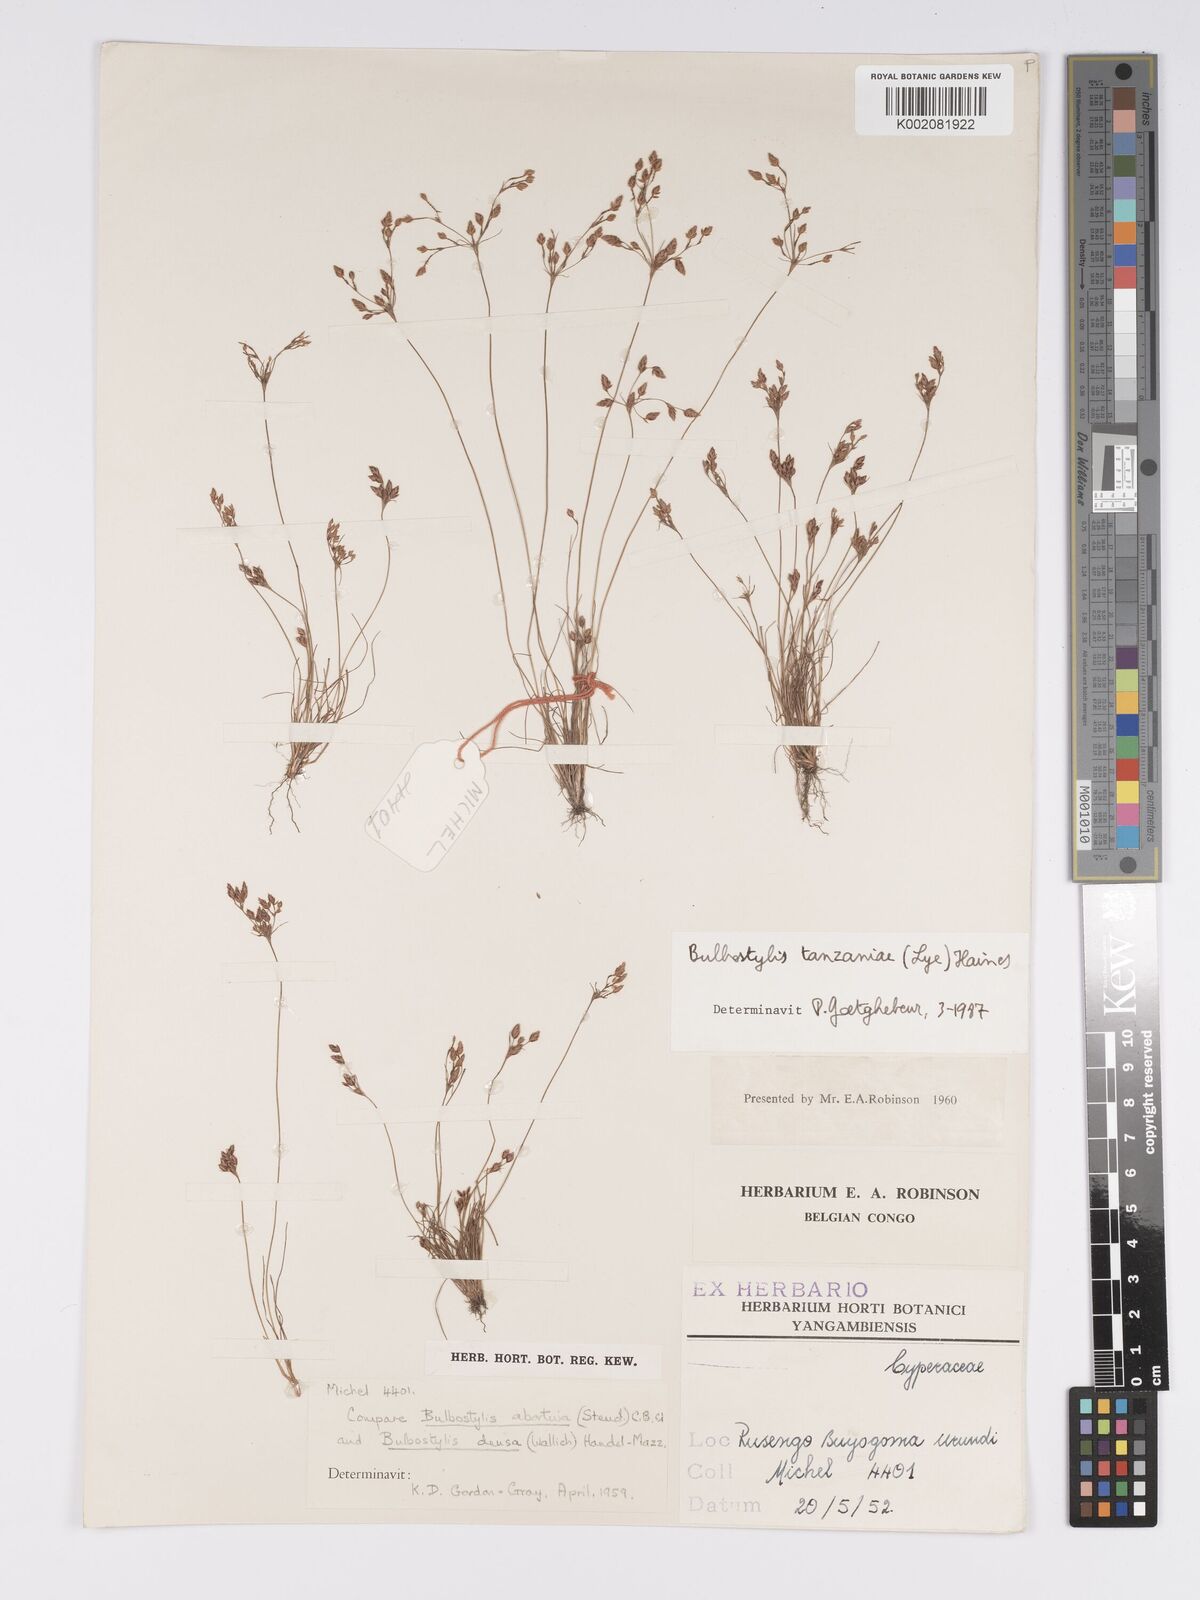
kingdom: Plantae
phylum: Tracheophyta
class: Liliopsida
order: Poales
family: Cyperaceae
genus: Bulbostylis
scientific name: Bulbostylis tanzaniae
